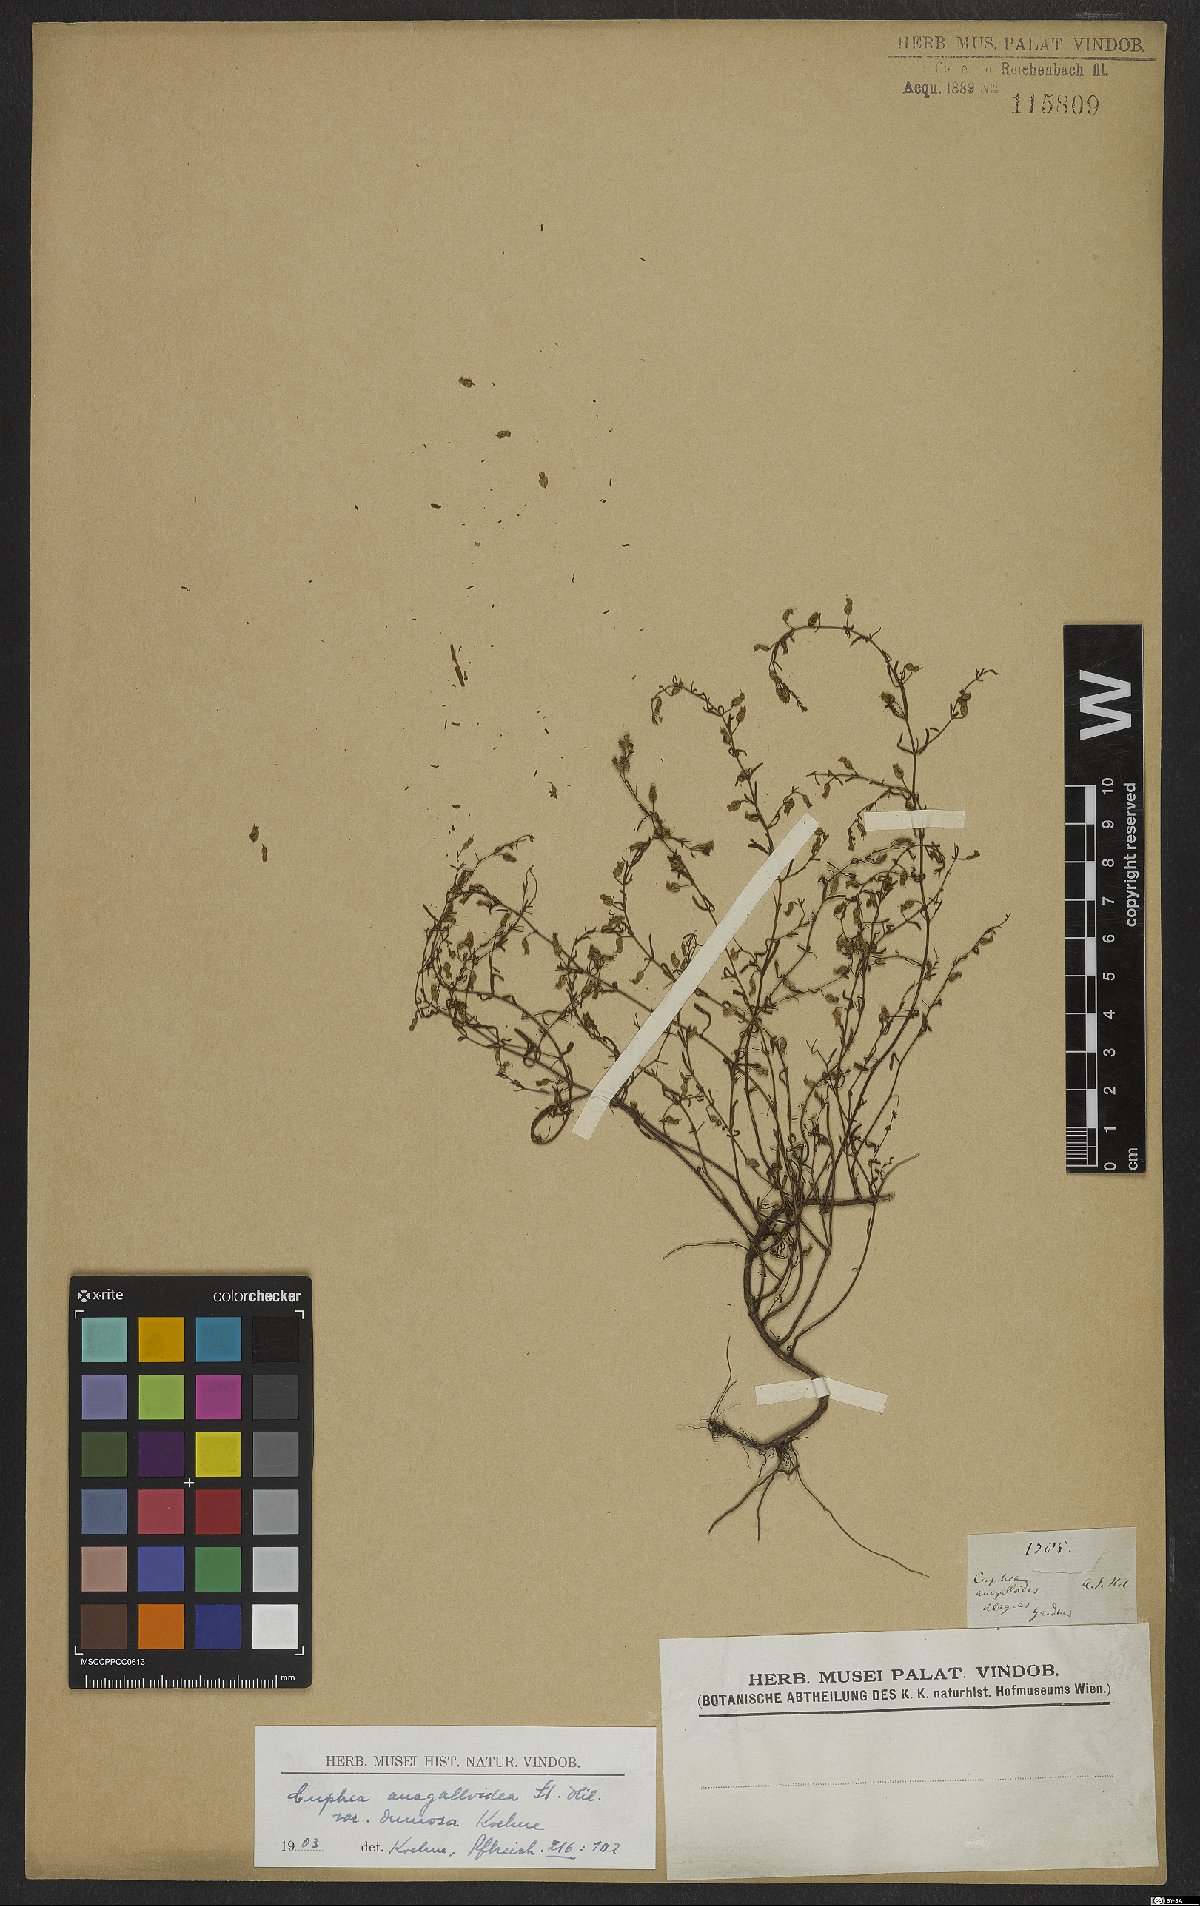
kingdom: Plantae
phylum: Tracheophyta
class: Magnoliopsida
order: Myrtales
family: Lythraceae
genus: Cuphea
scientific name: Cuphea anagalloidea
